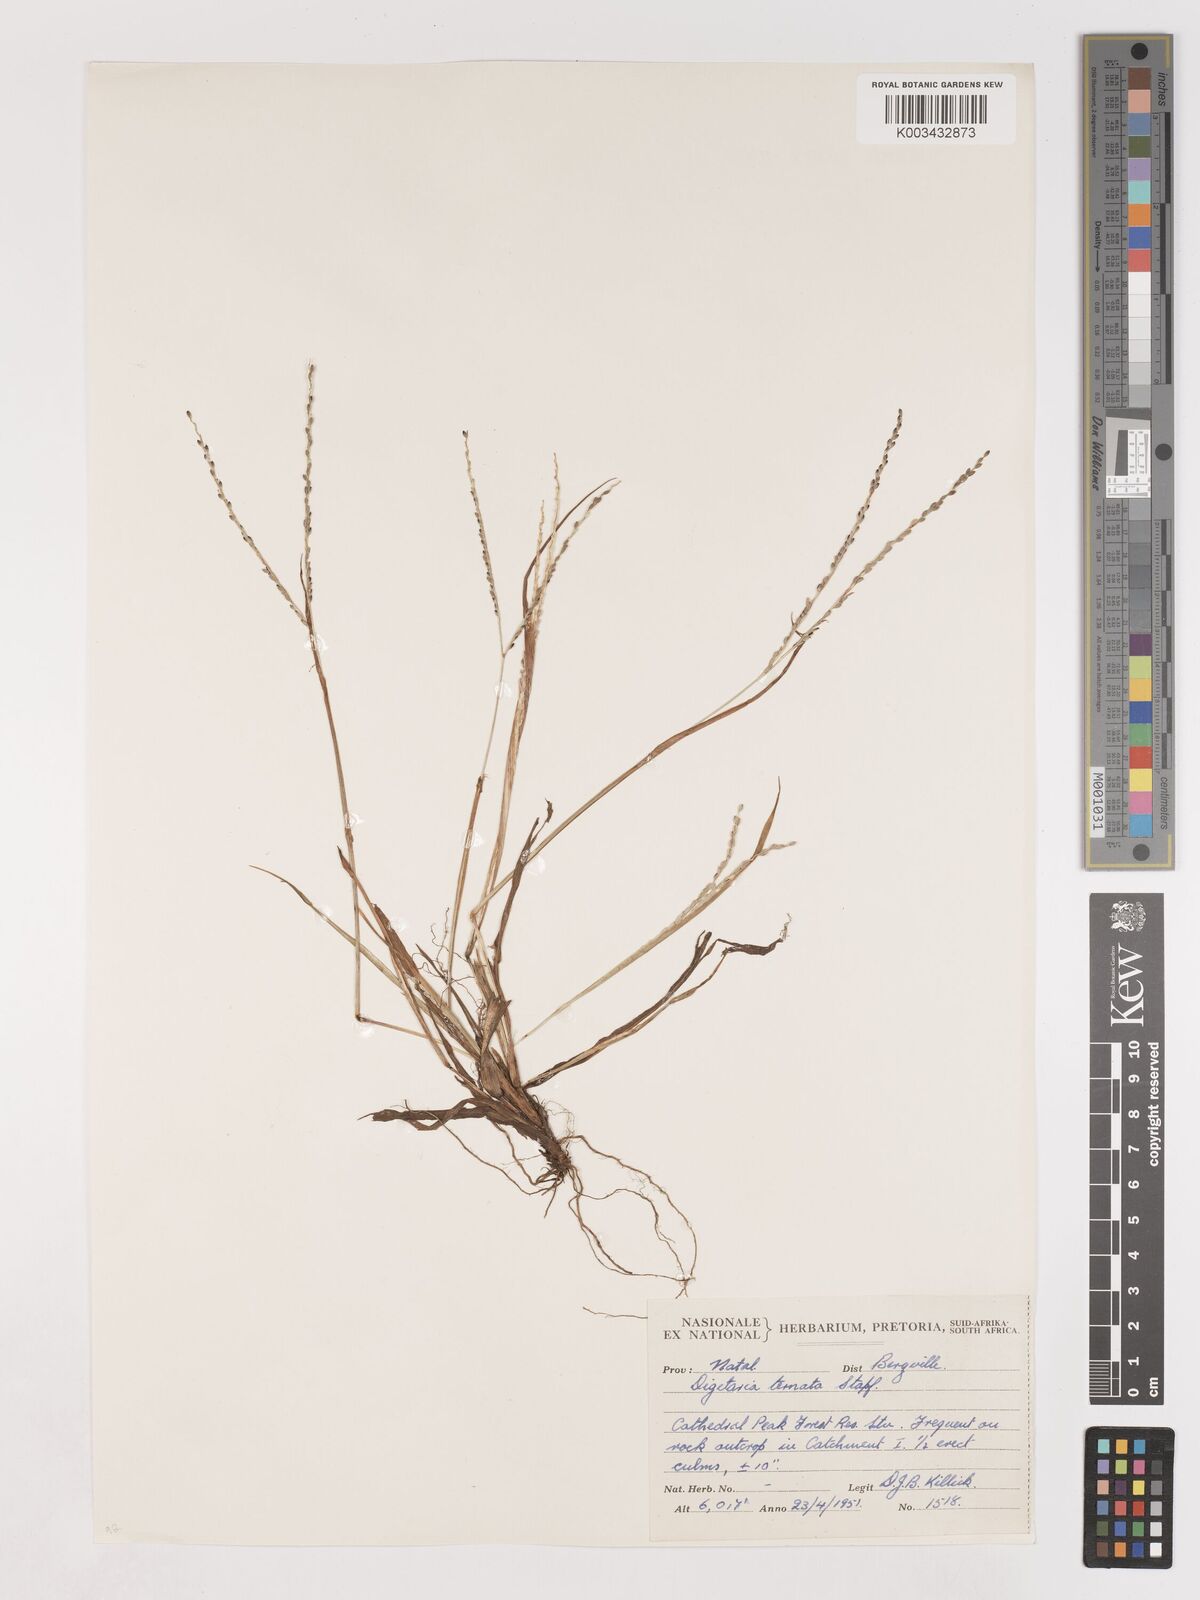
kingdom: Plantae
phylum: Tracheophyta
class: Liliopsida
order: Poales
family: Poaceae
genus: Digitaria
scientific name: Digitaria ternata
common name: Blackseed crabgrass
